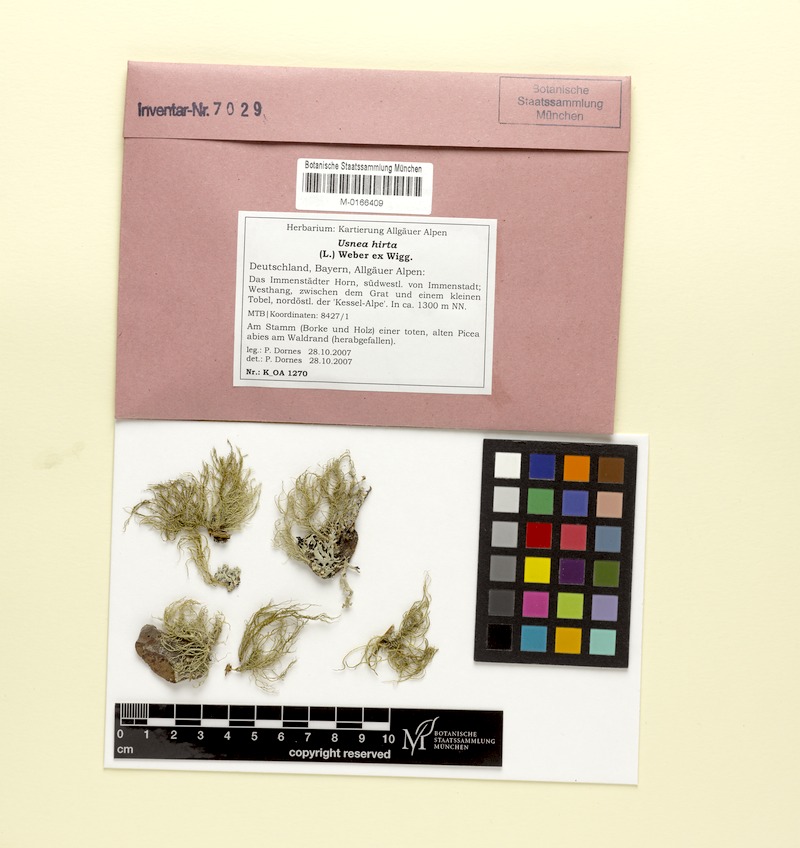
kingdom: Fungi
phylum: Ascomycota
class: Lecanoromycetes
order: Lecanorales
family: Parmeliaceae
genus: Usnea
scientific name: Usnea hirta
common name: Bristly beard lichen
